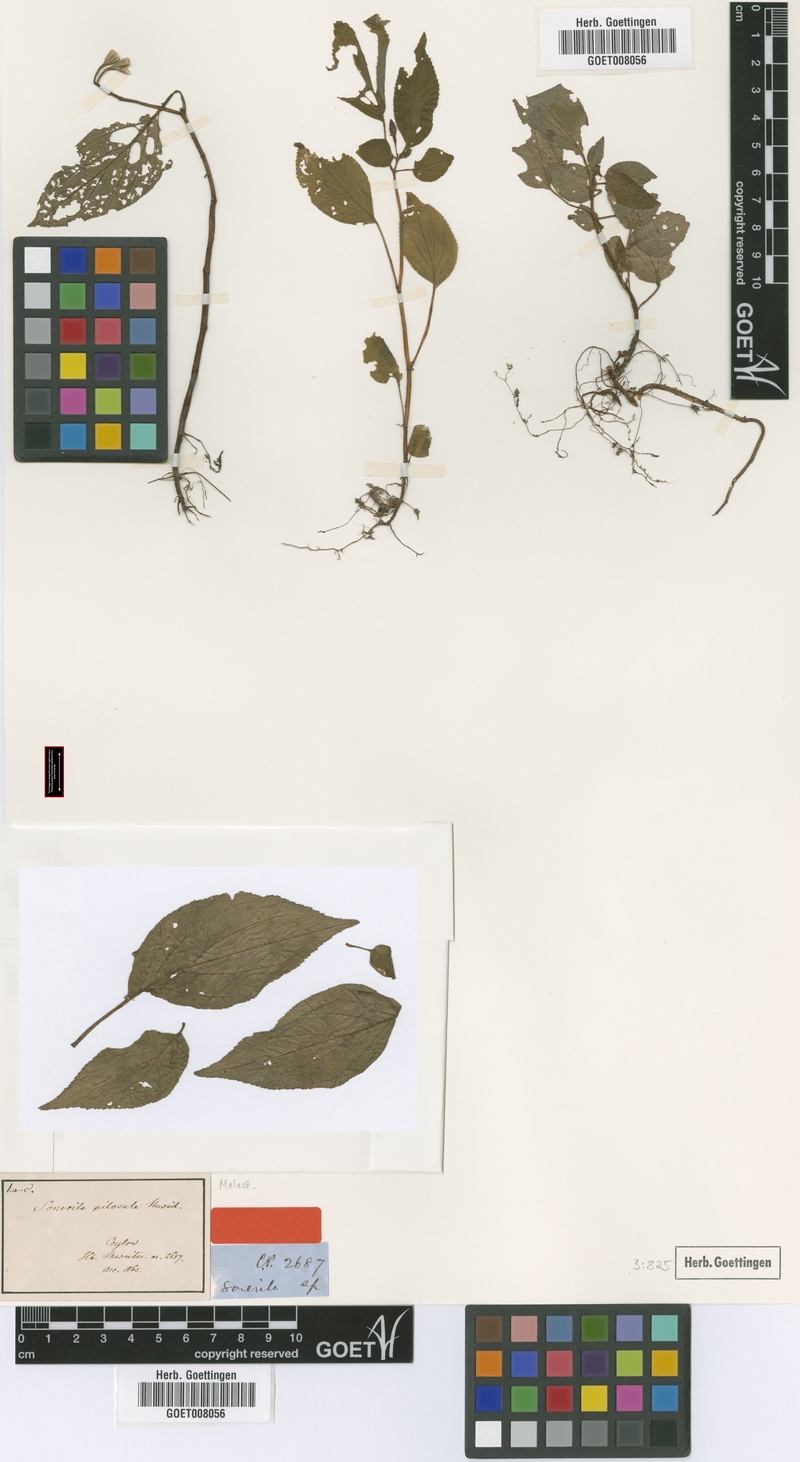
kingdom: Plantae
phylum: Tracheophyta
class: Magnoliopsida
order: Myrtales
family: Melastomataceae
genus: Sonerila
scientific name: Sonerila pilosula
